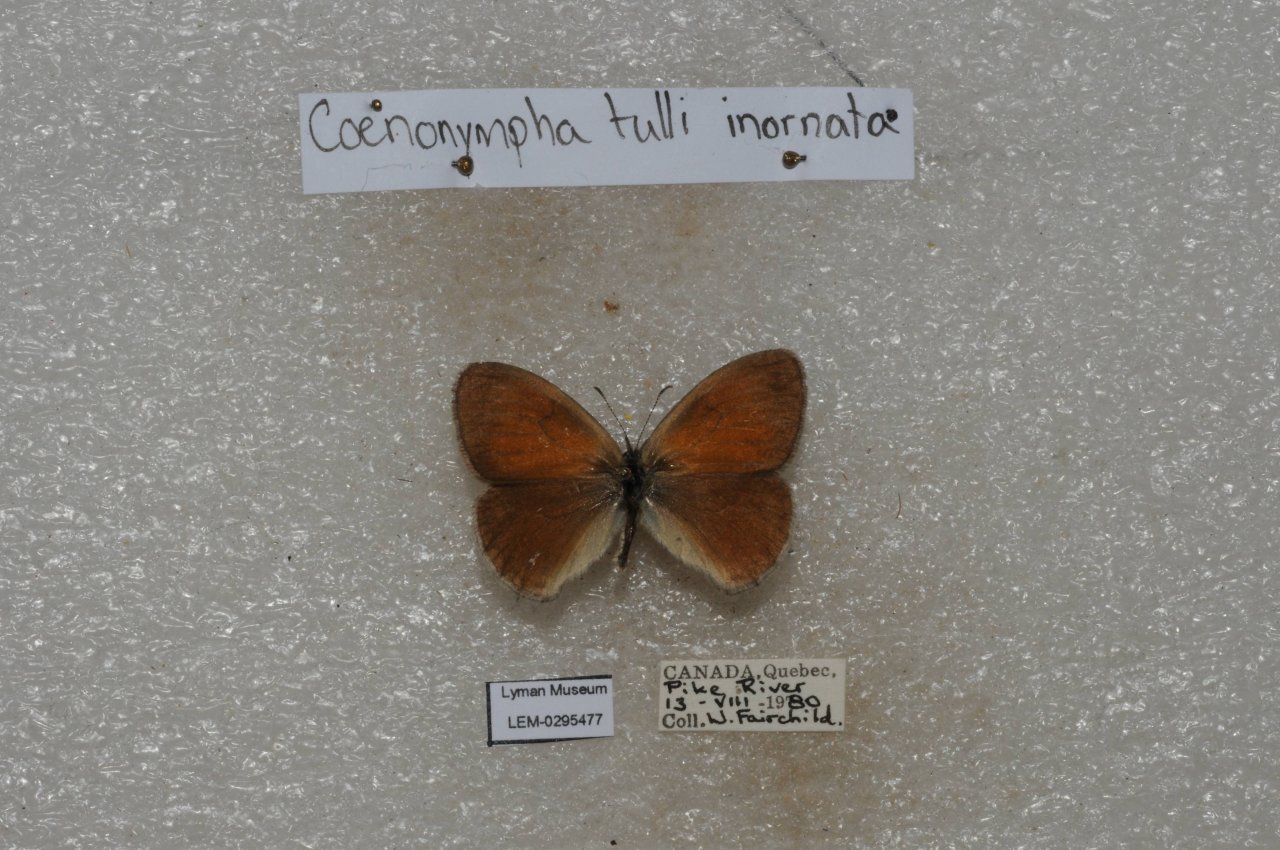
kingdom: Animalia
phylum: Arthropoda
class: Insecta
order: Lepidoptera
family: Nymphalidae
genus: Coenonympha
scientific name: Coenonympha tullia
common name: Large Heath
